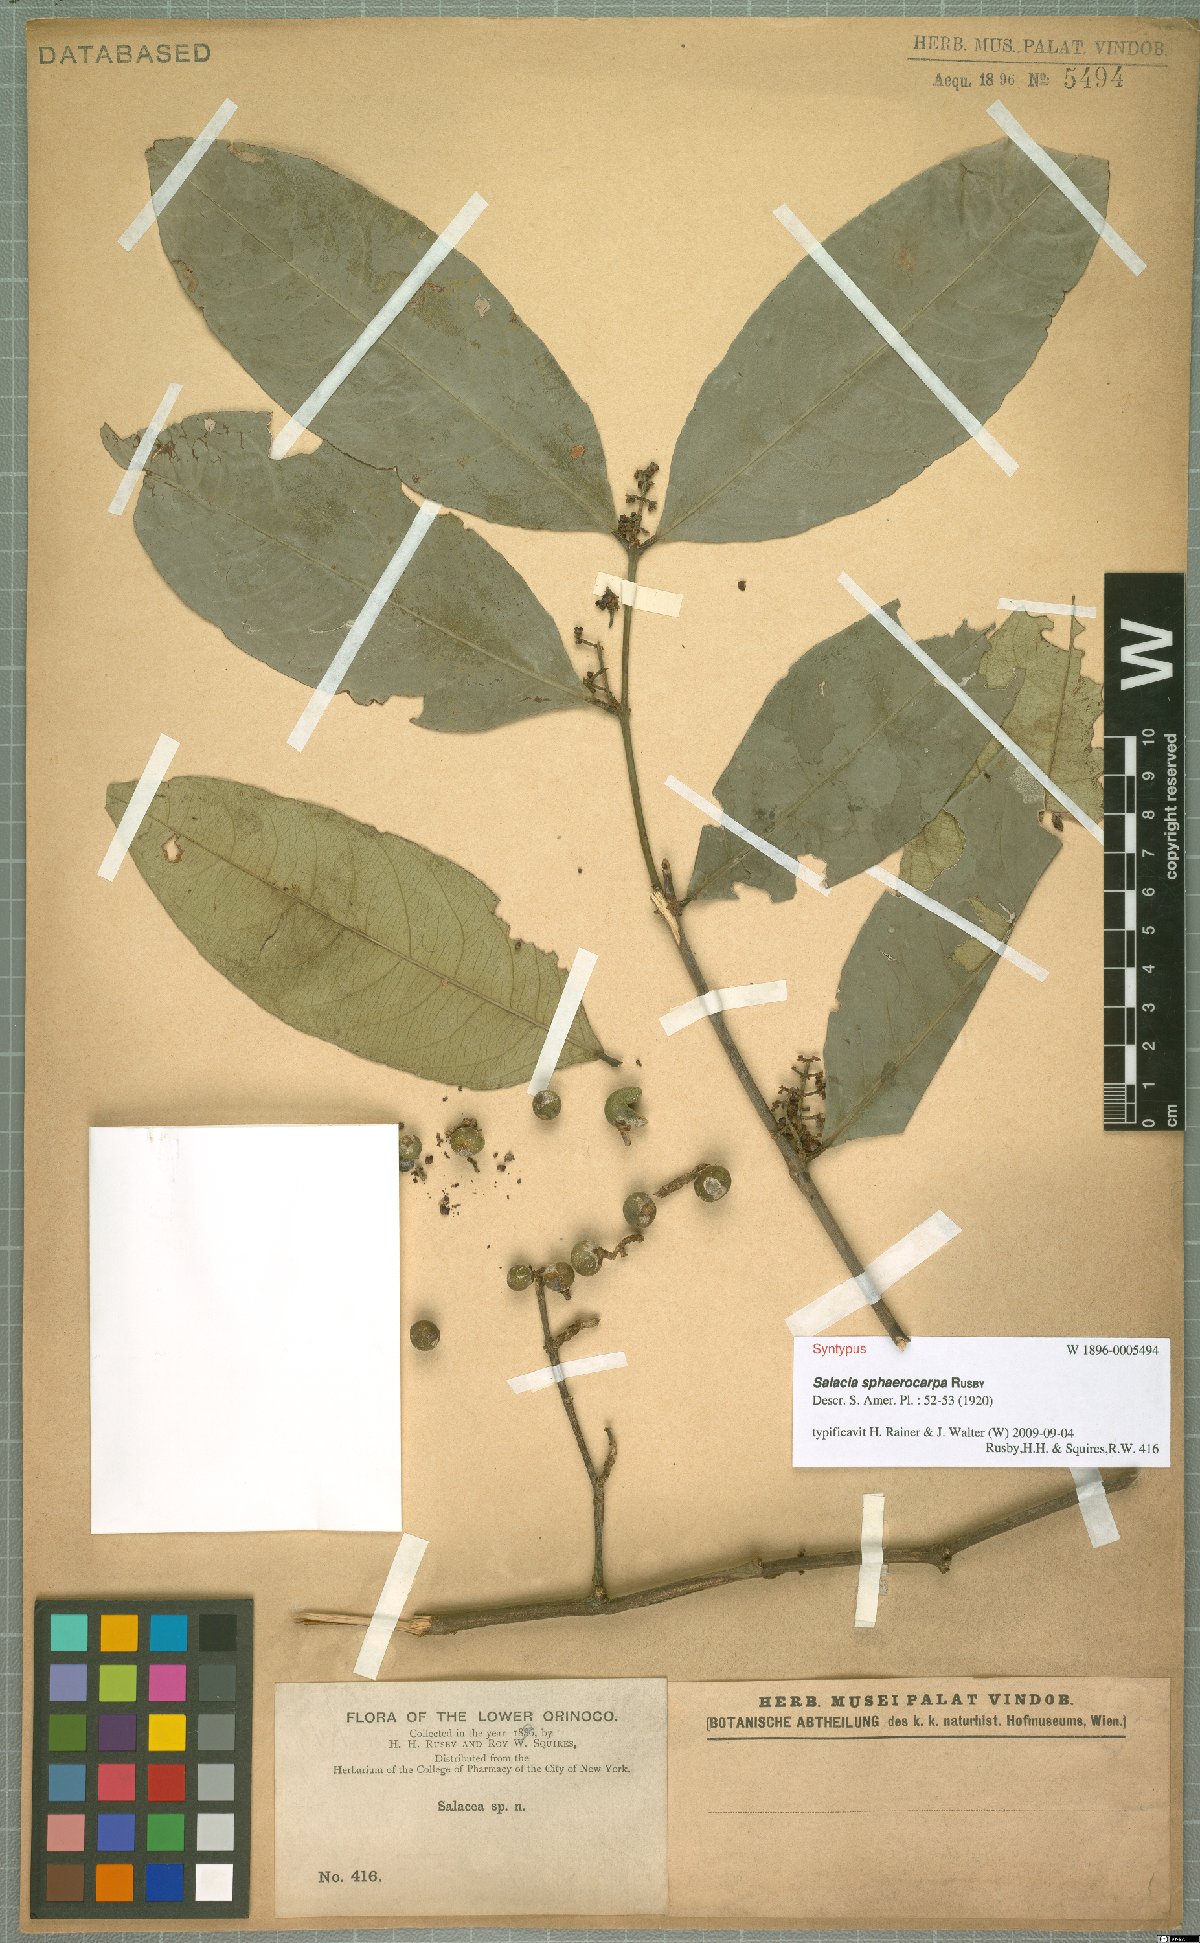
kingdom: Plantae
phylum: Tracheophyta
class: Magnoliopsida
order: Celastrales
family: Celastraceae
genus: Cheiloclinium
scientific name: Cheiloclinium cognatum
